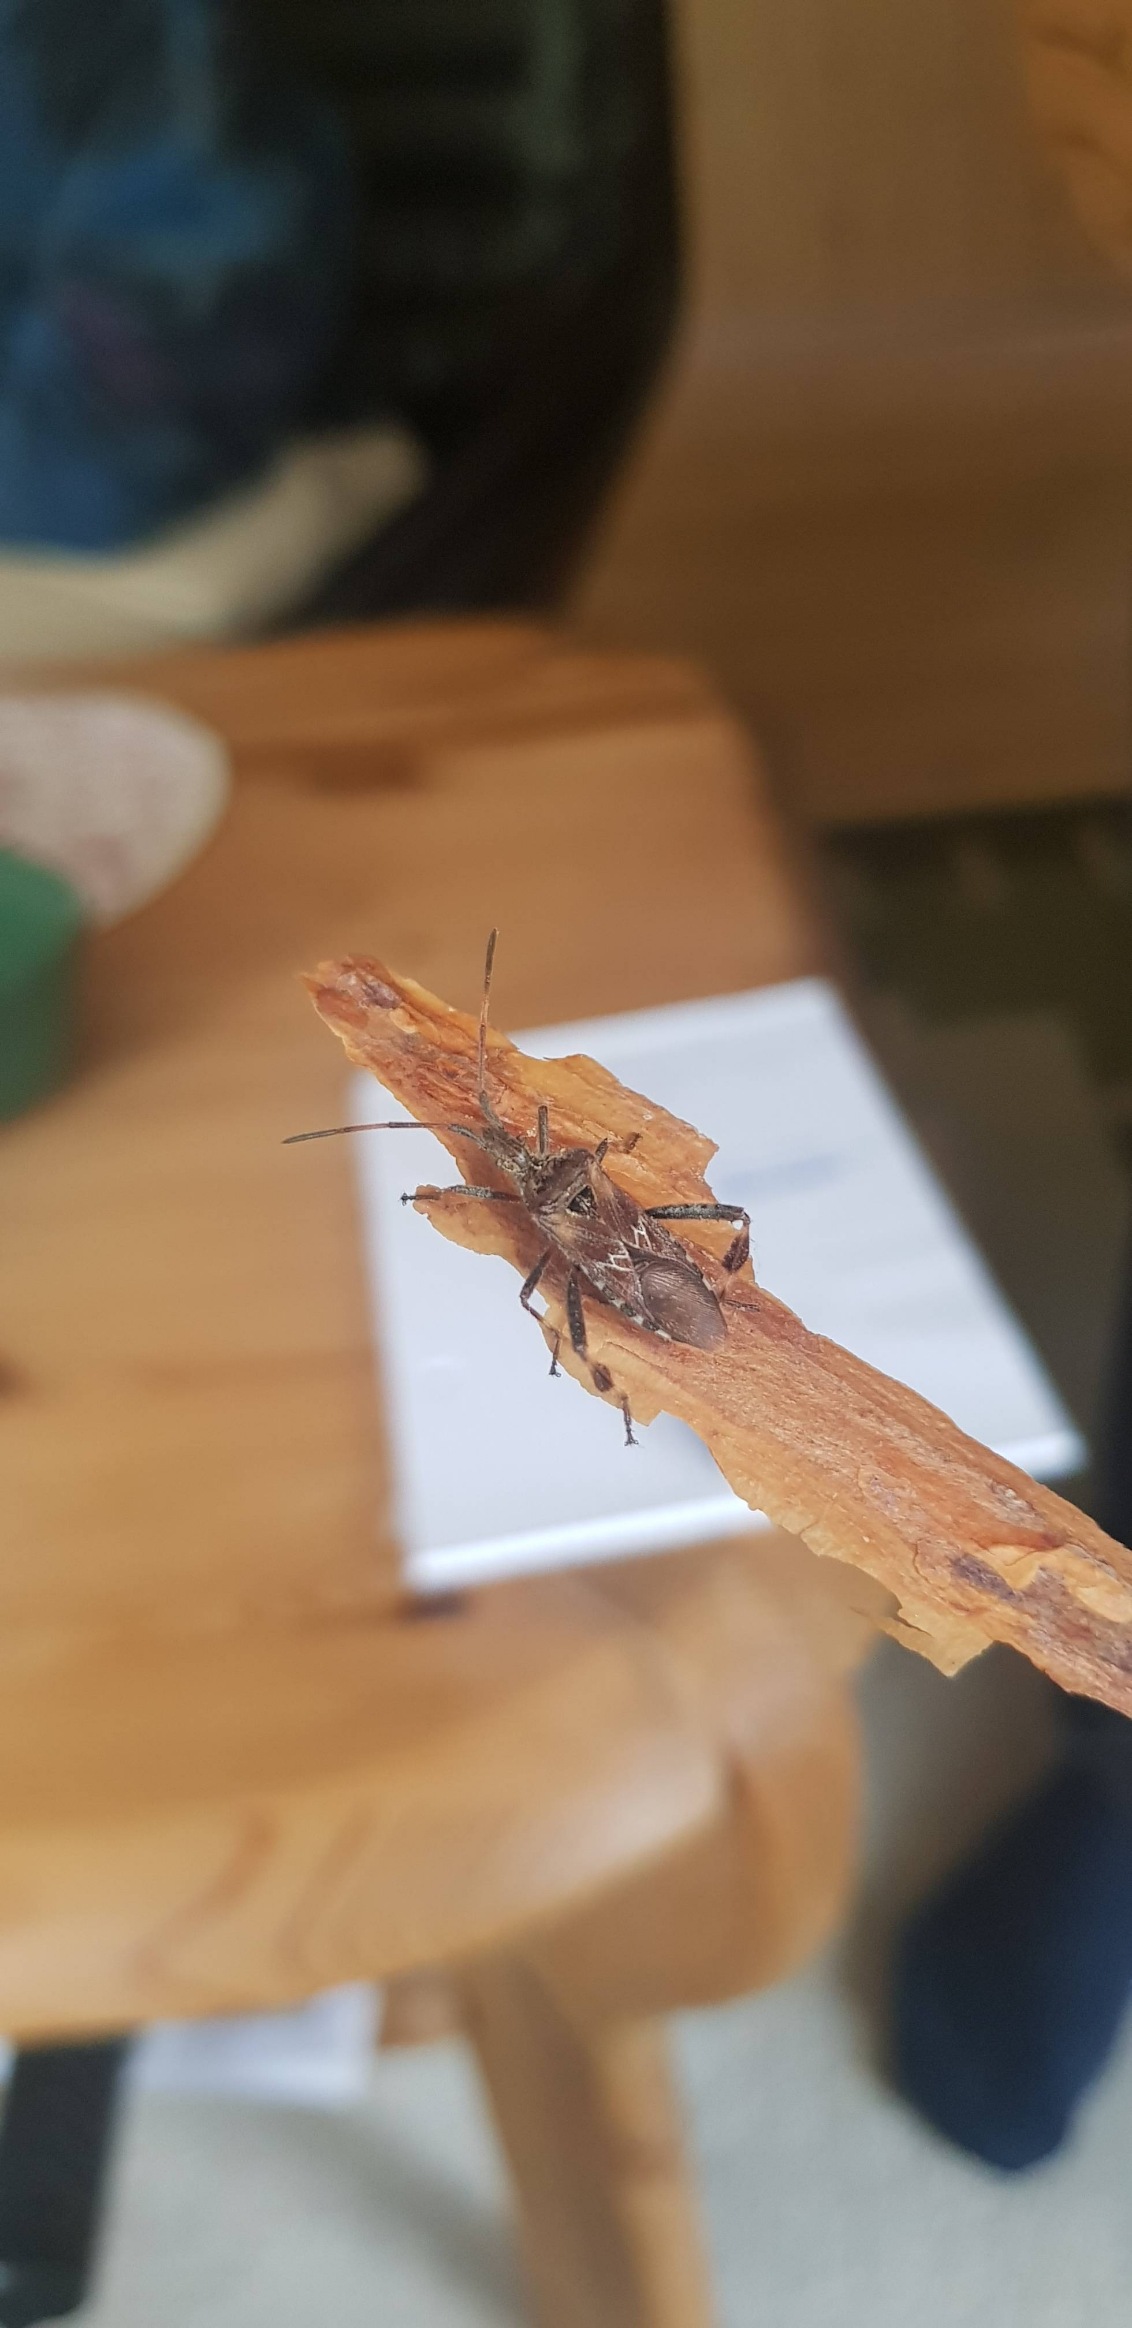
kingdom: Animalia
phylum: Arthropoda
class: Insecta
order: Hemiptera
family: Coreidae
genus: Leptoglossus
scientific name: Leptoglossus occidentalis
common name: Amerikansk fyrretæge
